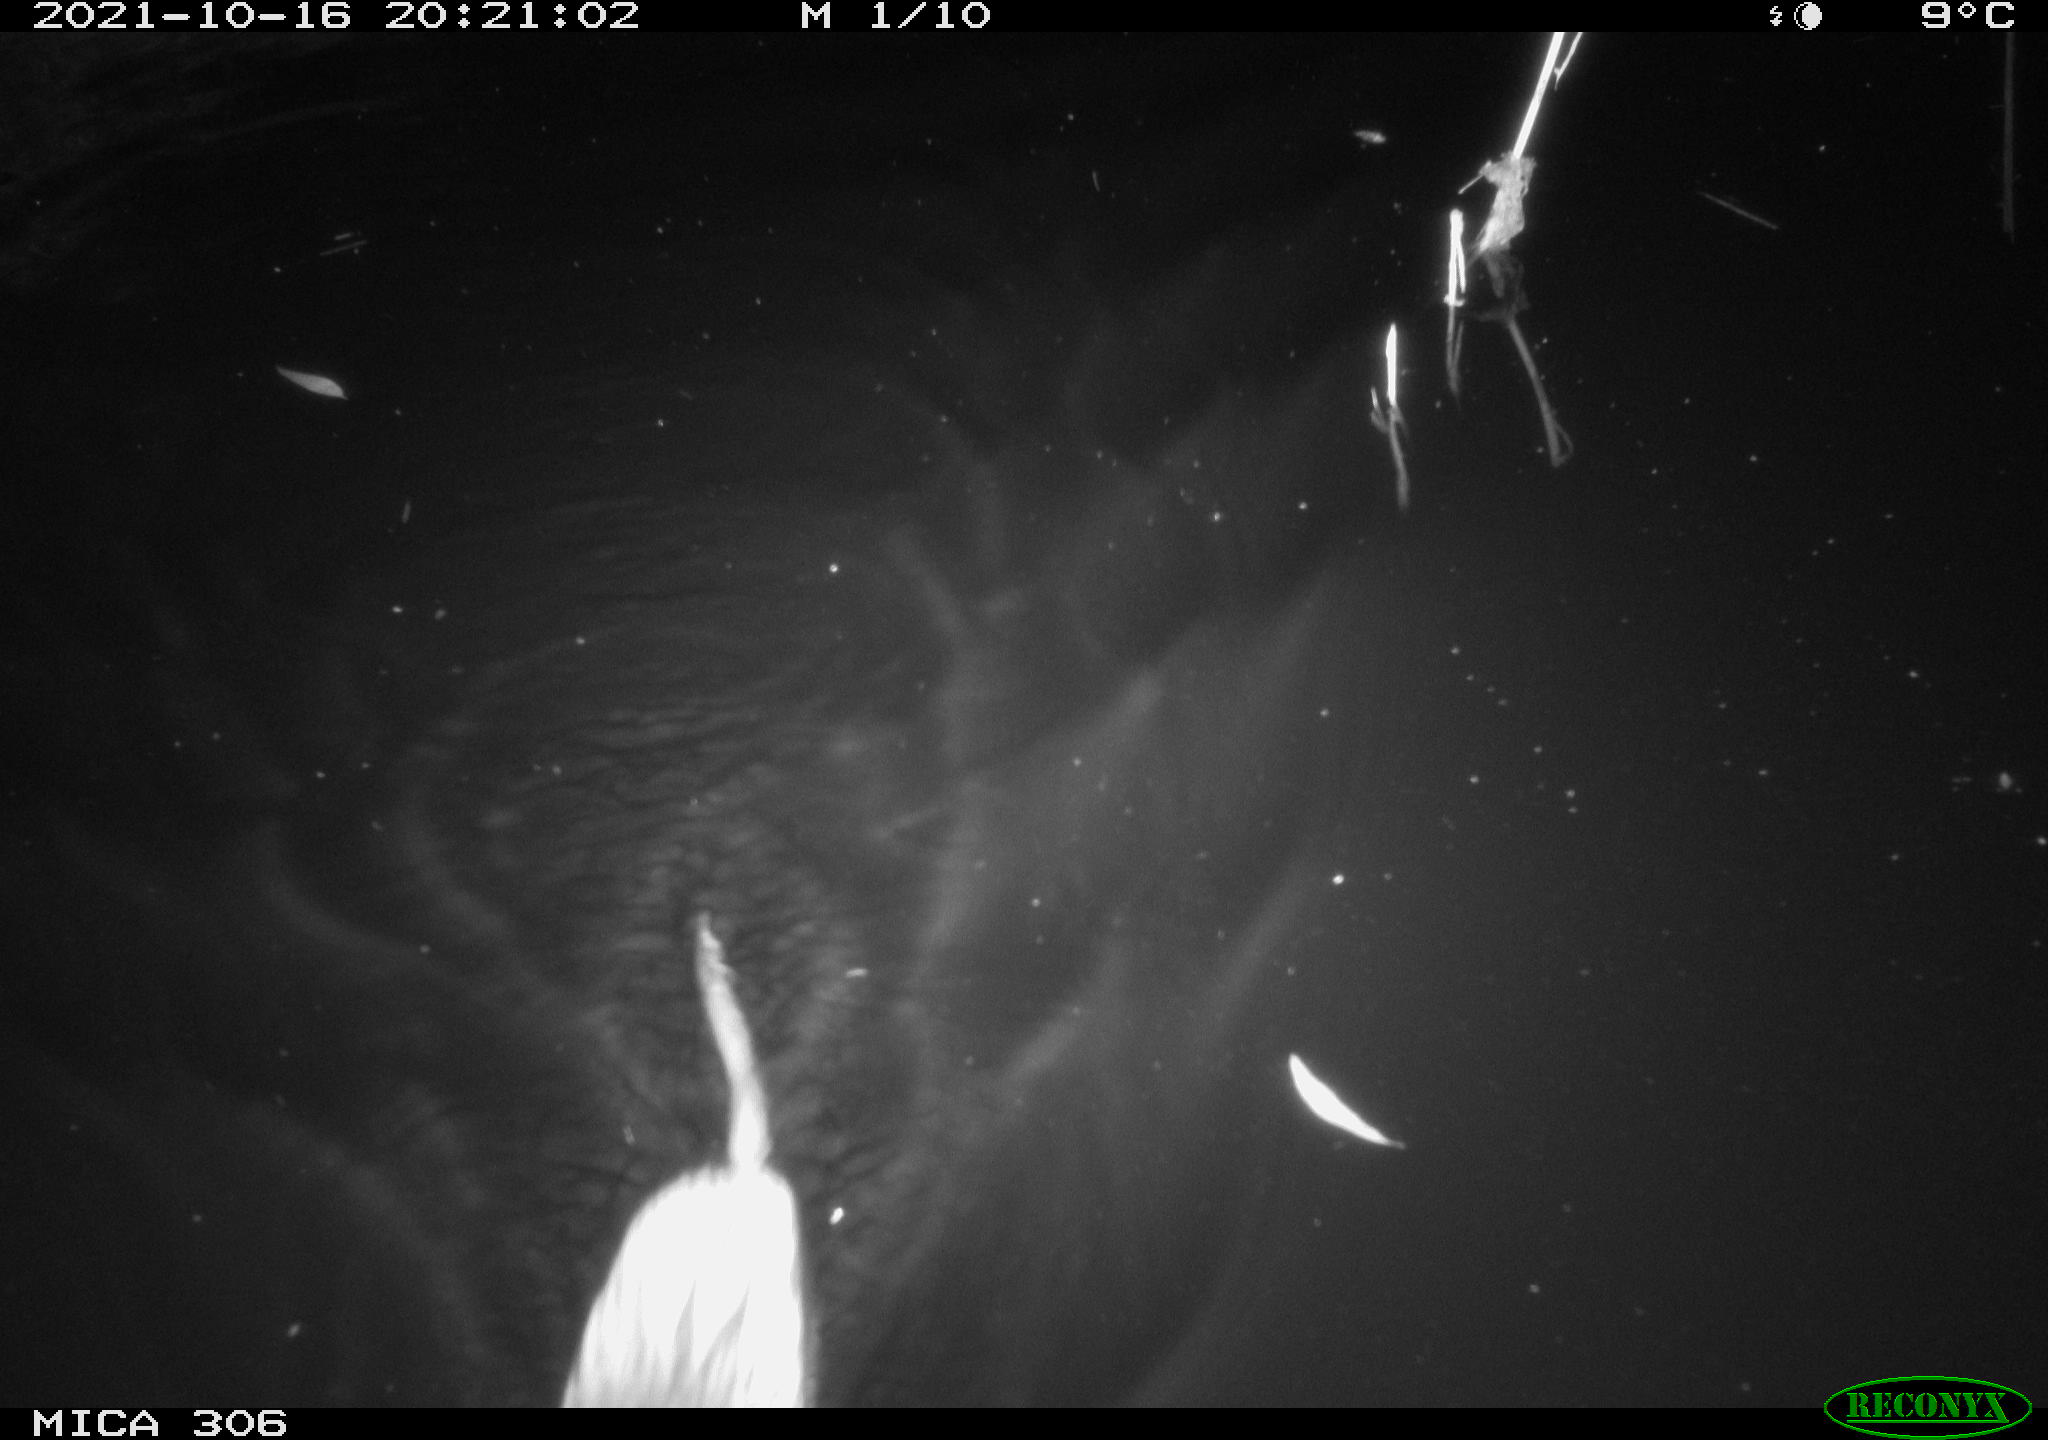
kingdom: Animalia
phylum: Chordata
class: Mammalia
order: Rodentia
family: Cricetidae
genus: Ondatra
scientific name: Ondatra zibethicus
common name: Muskrat
